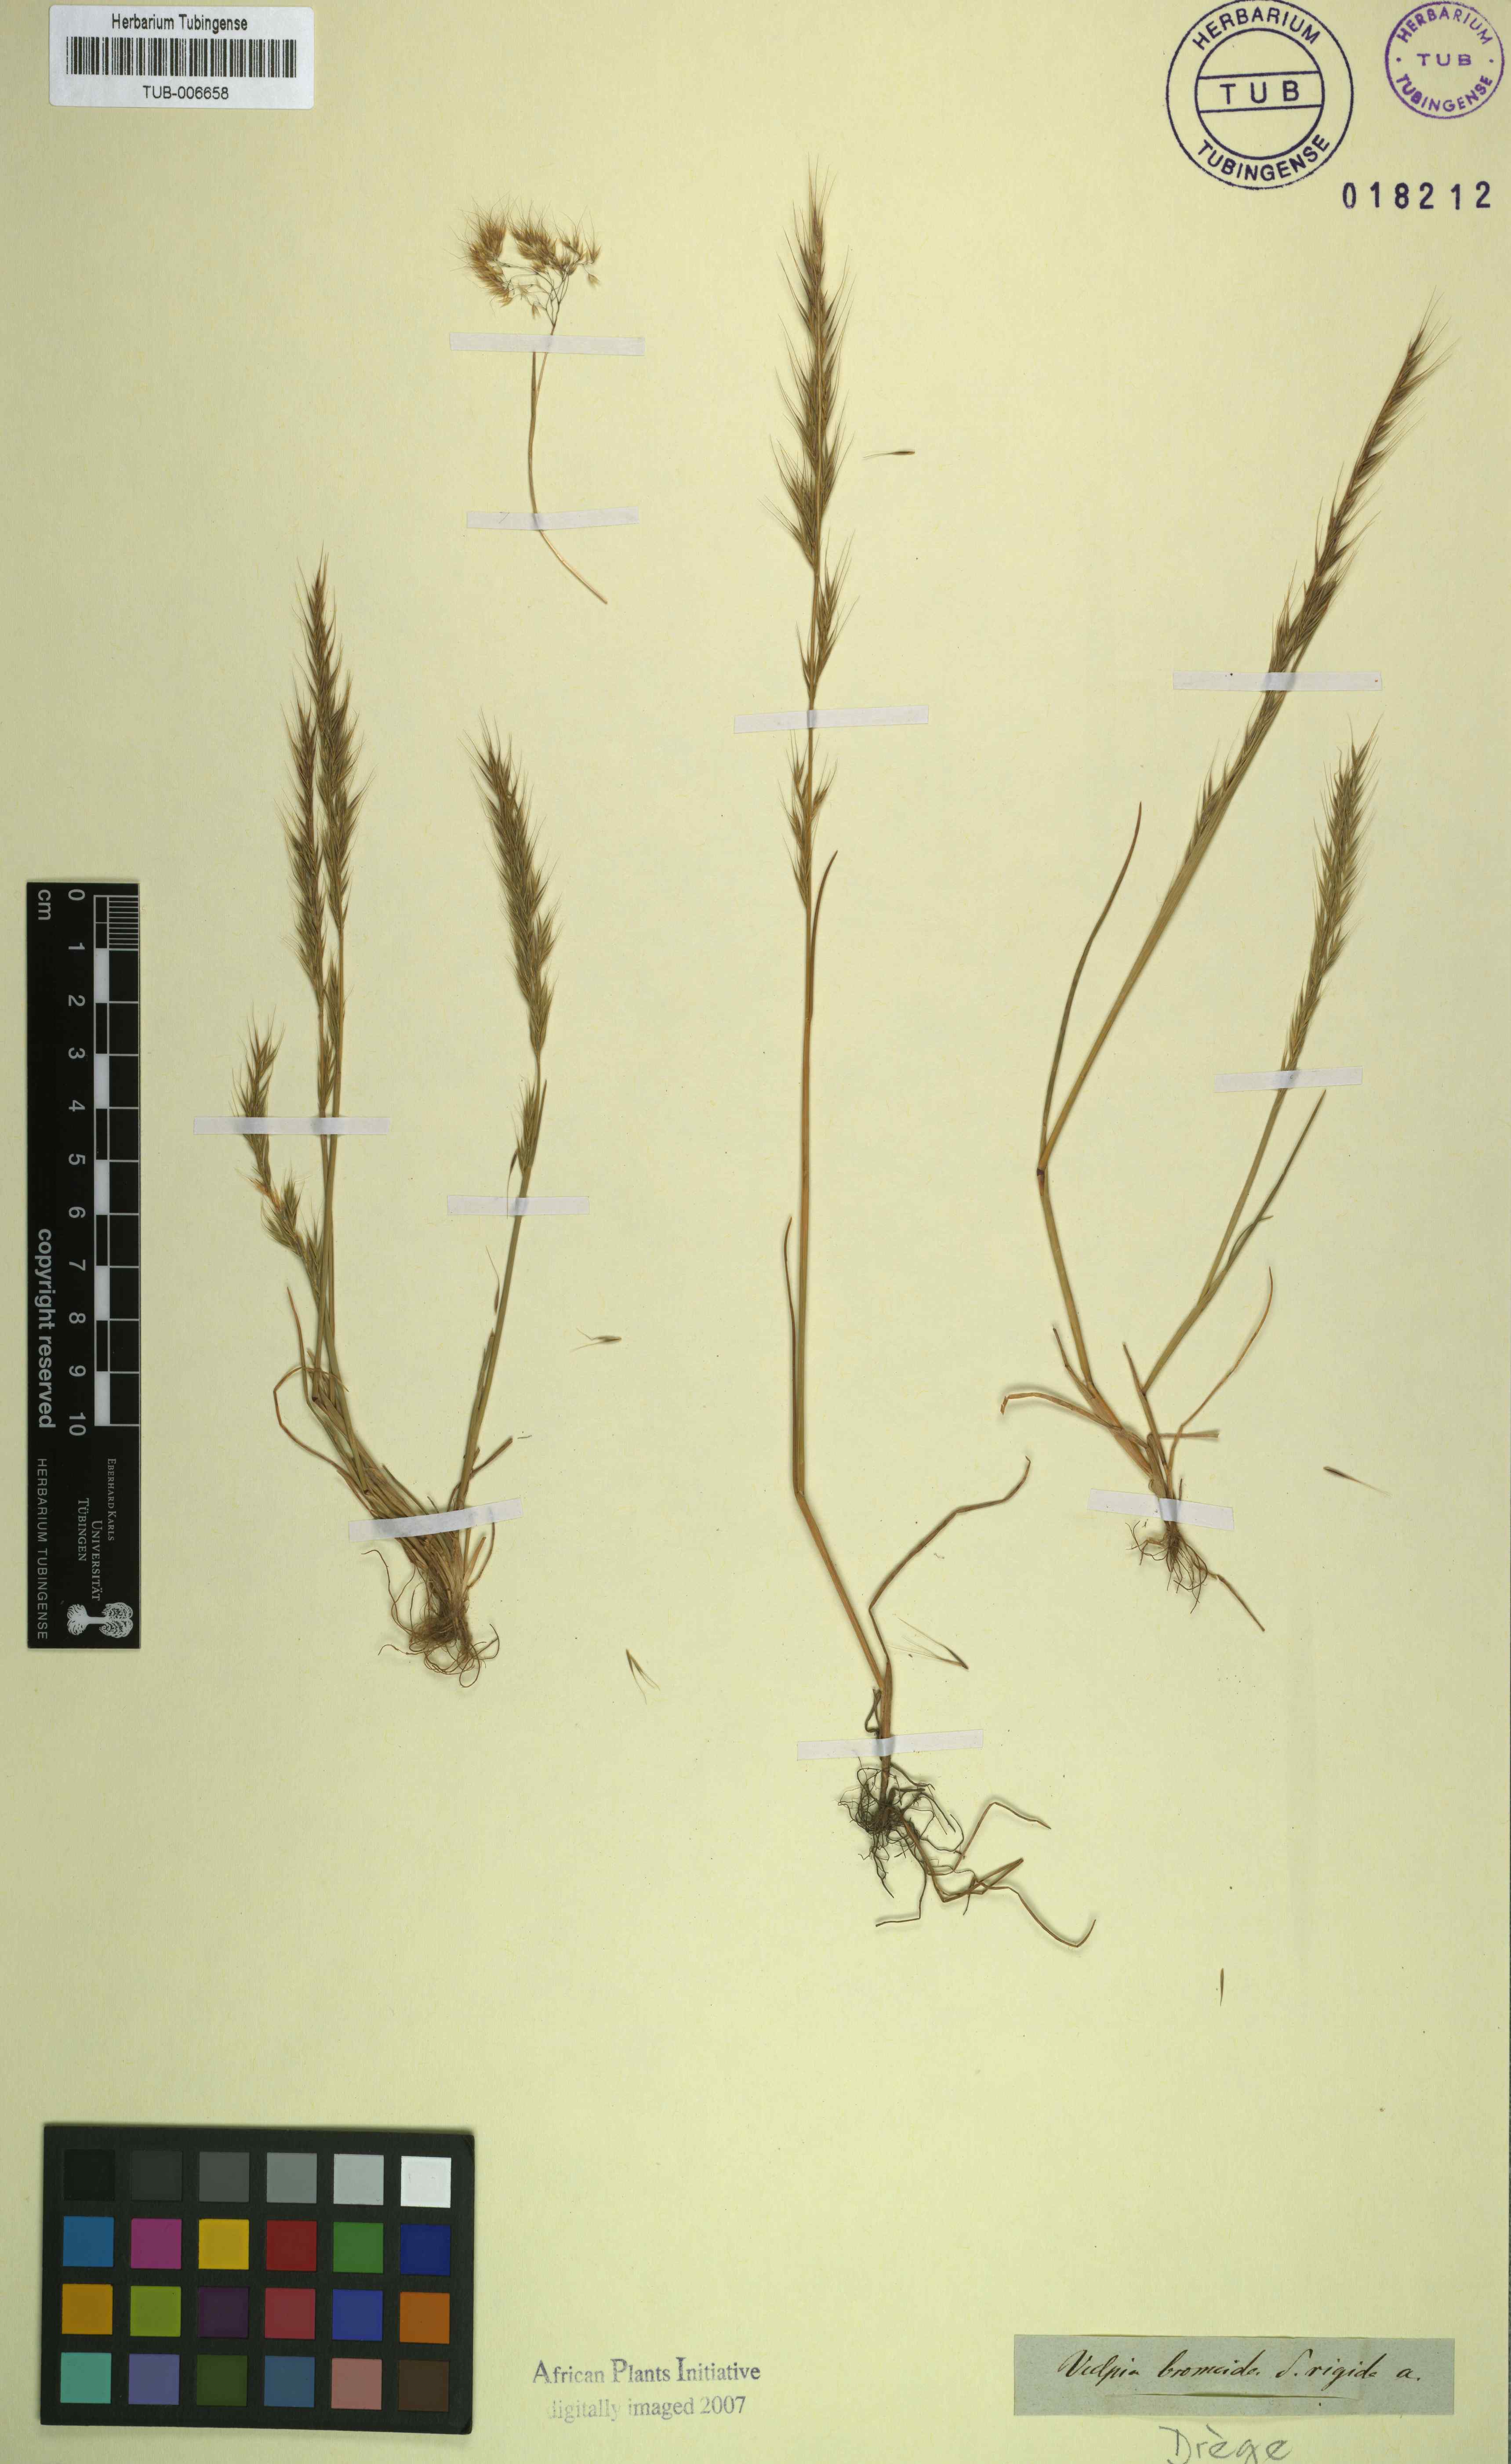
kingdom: Plantae
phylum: Tracheophyta
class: Liliopsida
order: Poales
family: Poaceae
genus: Festuca
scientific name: Festuca bromoides
